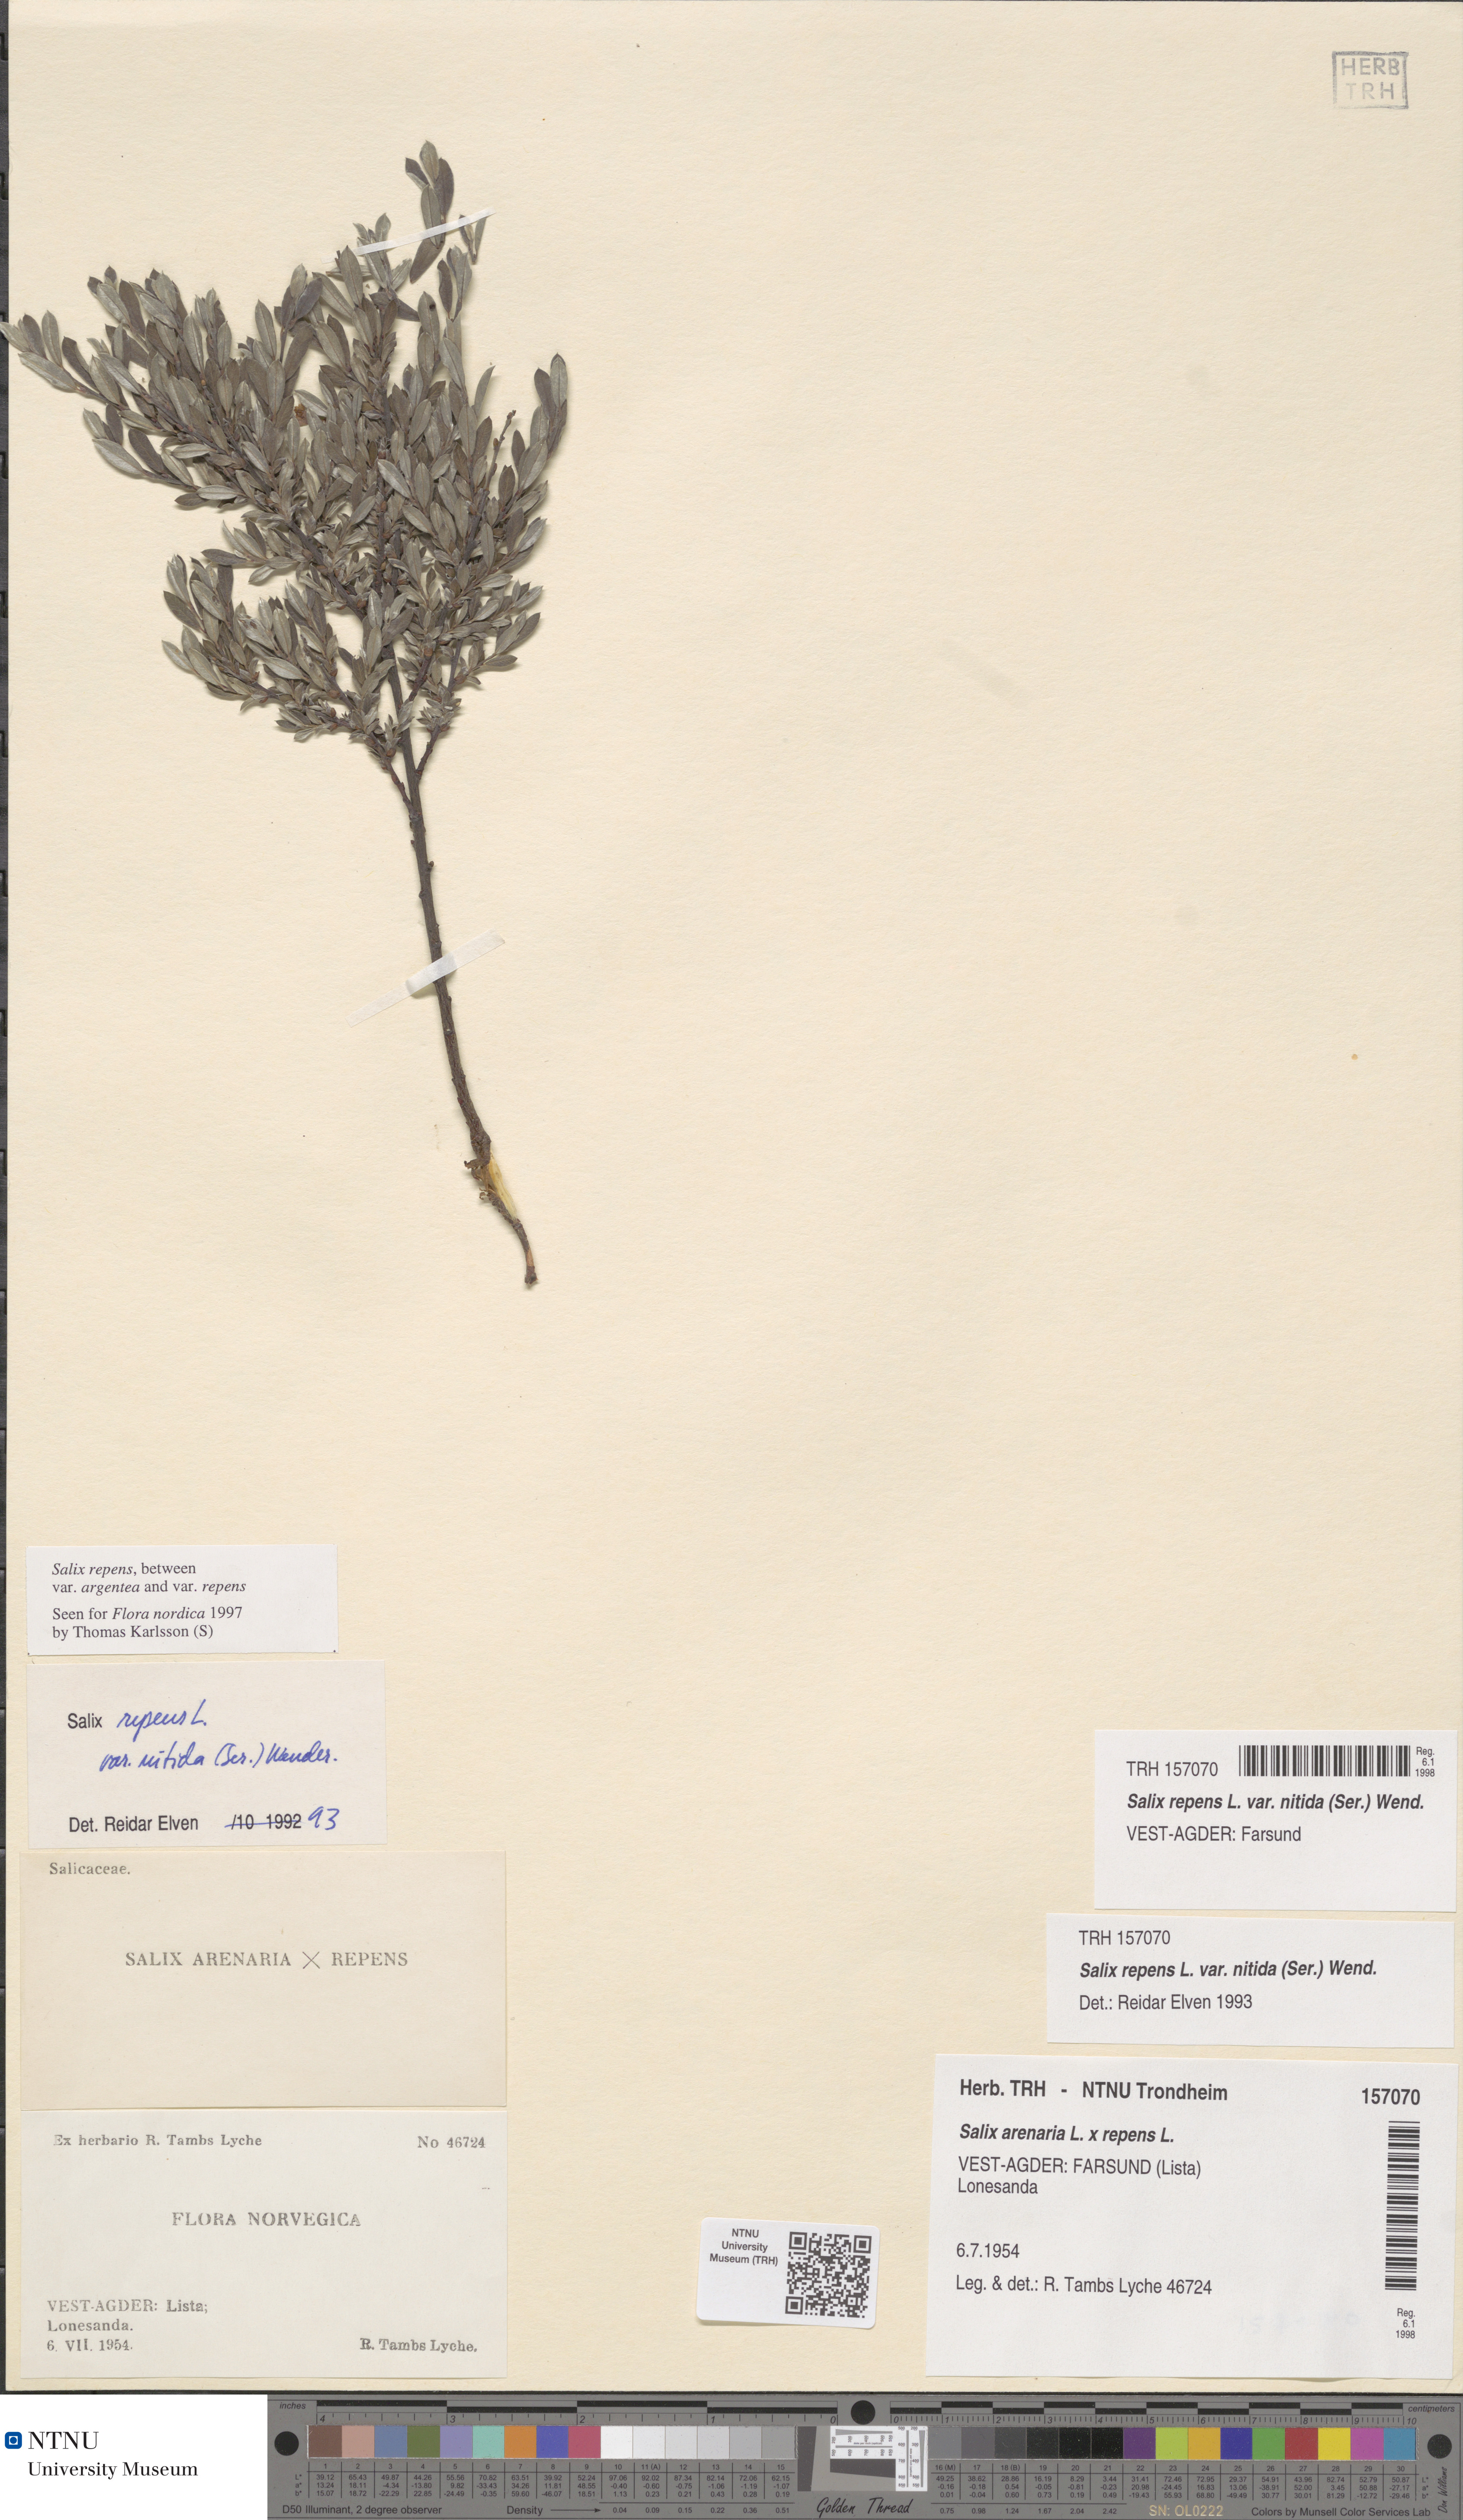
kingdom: Plantae
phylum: Tracheophyta
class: Magnoliopsida
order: Malpighiales
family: Salicaceae
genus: Salix
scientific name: Salix repens
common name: Creeping willow
